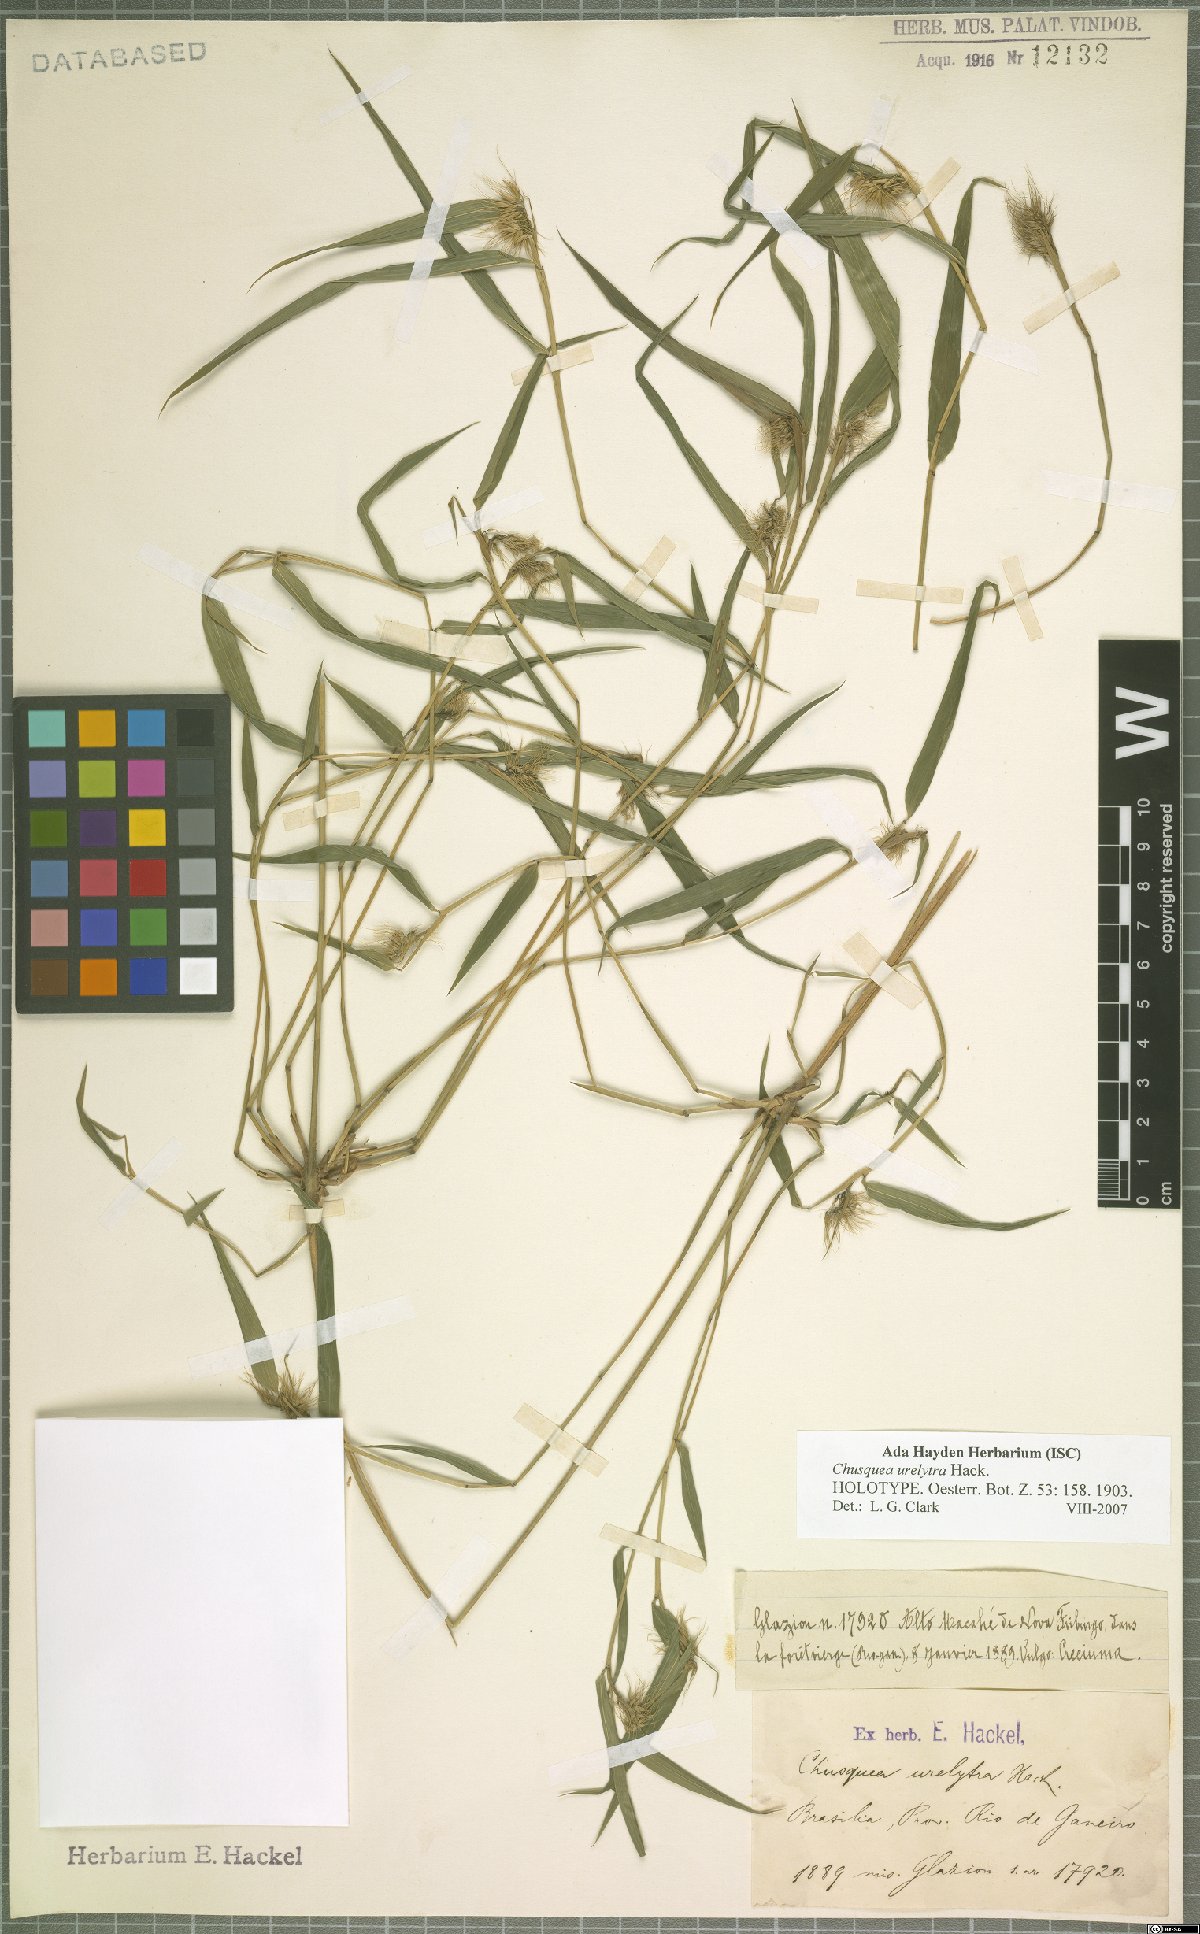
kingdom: Plantae
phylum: Tracheophyta
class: Liliopsida
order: Poales
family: Poaceae
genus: Chusquea
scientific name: Chusquea urelytra
